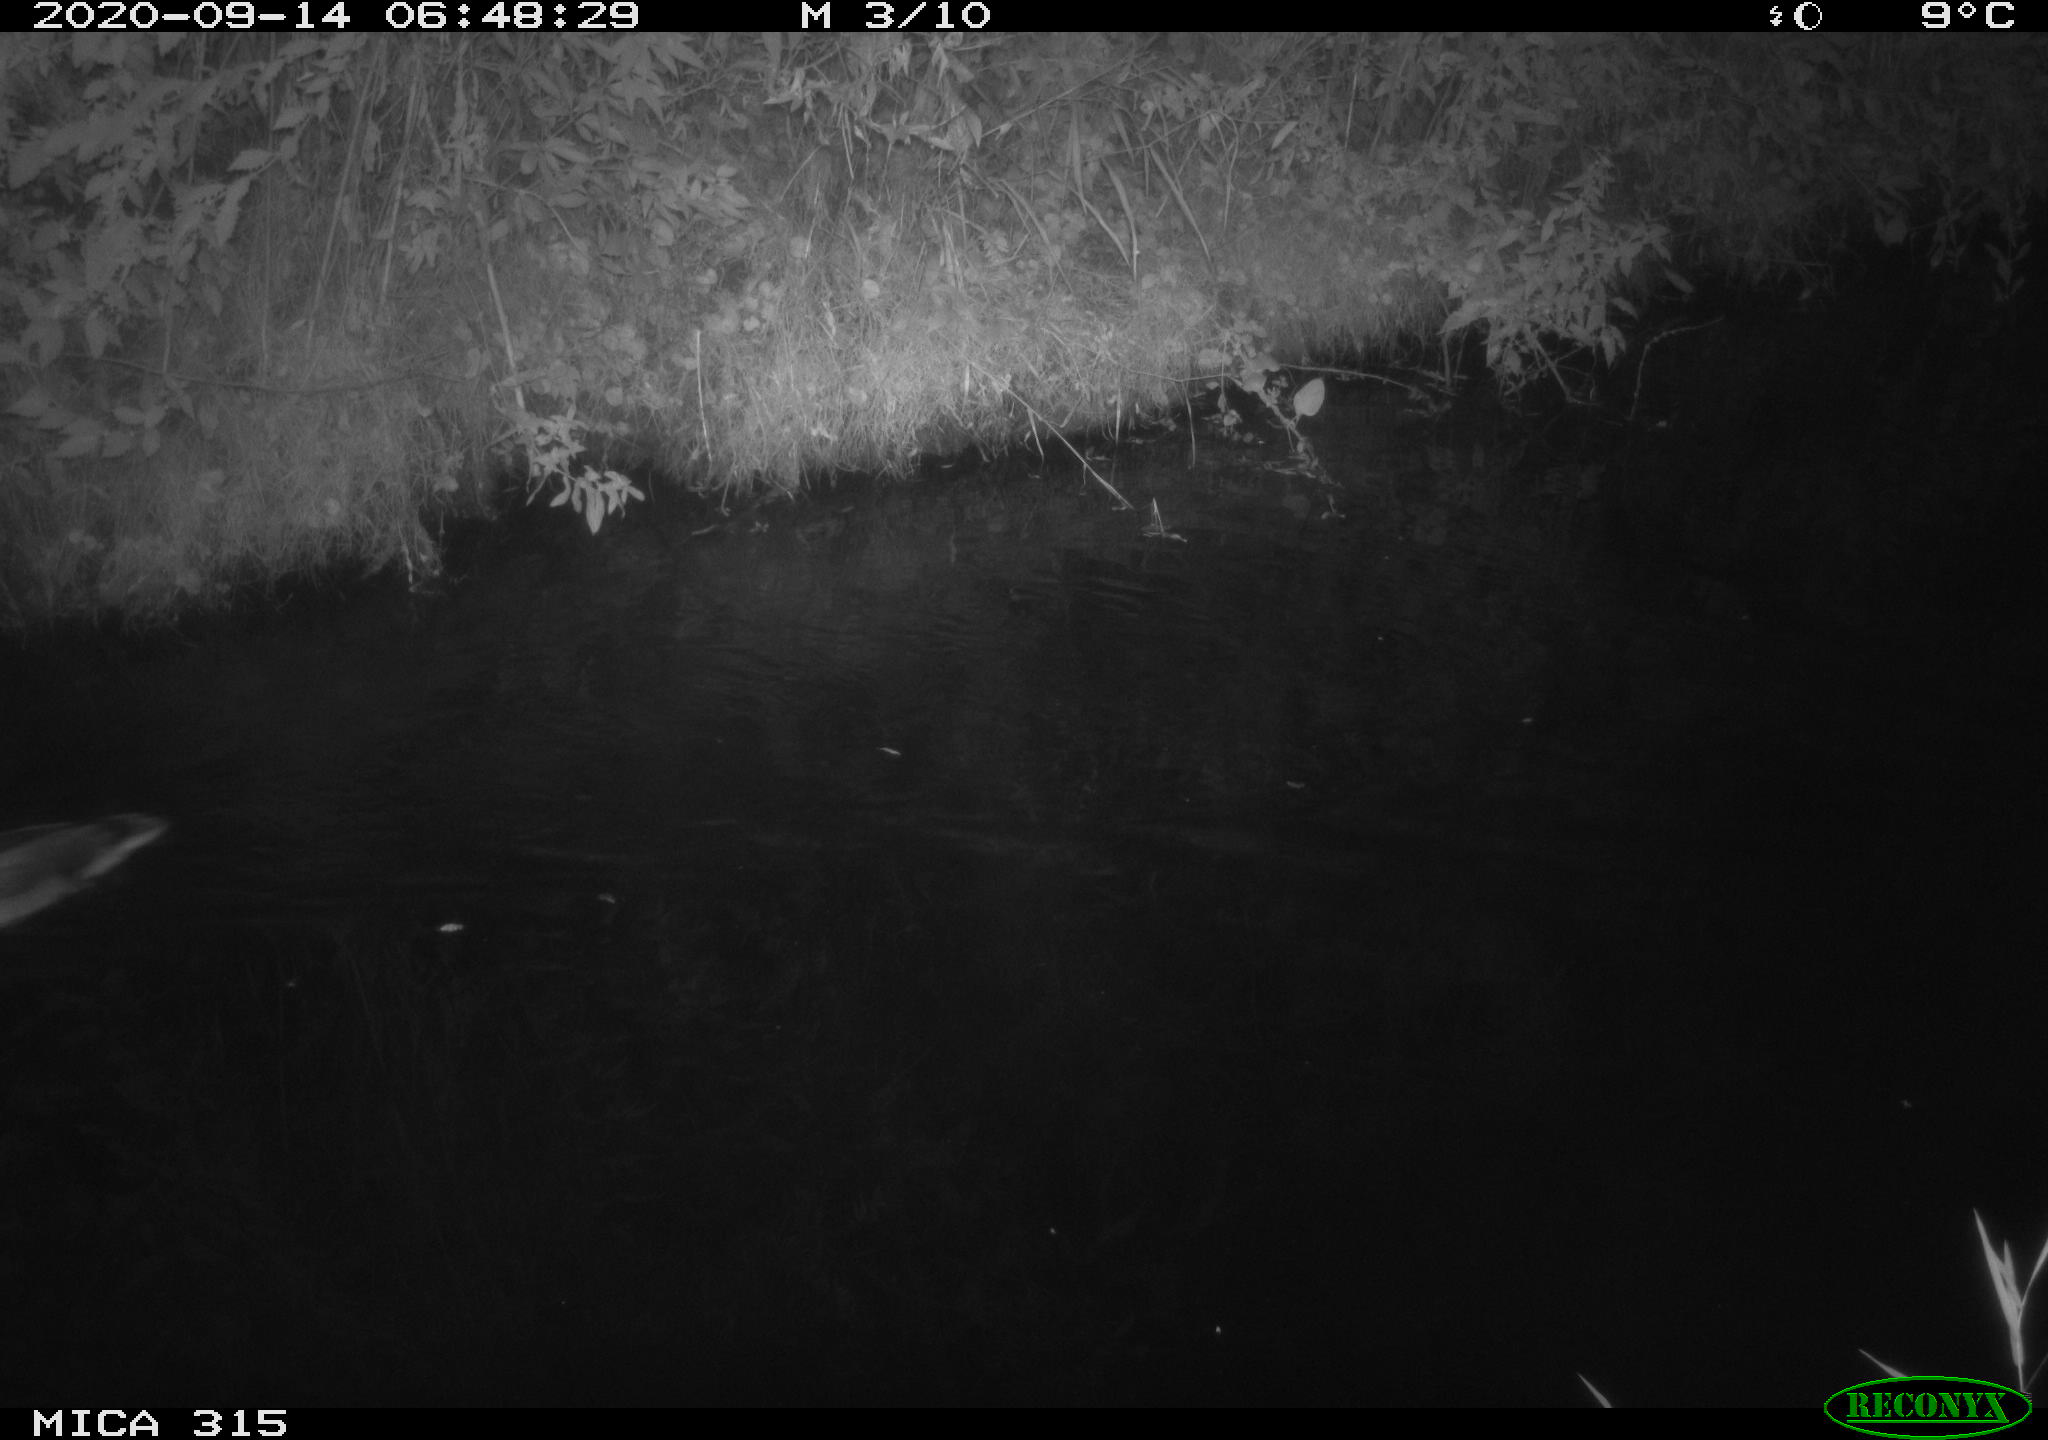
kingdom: Animalia
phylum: Chordata
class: Aves
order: Anseriformes
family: Anatidae
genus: Anas
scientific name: Anas platyrhynchos
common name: Mallard
